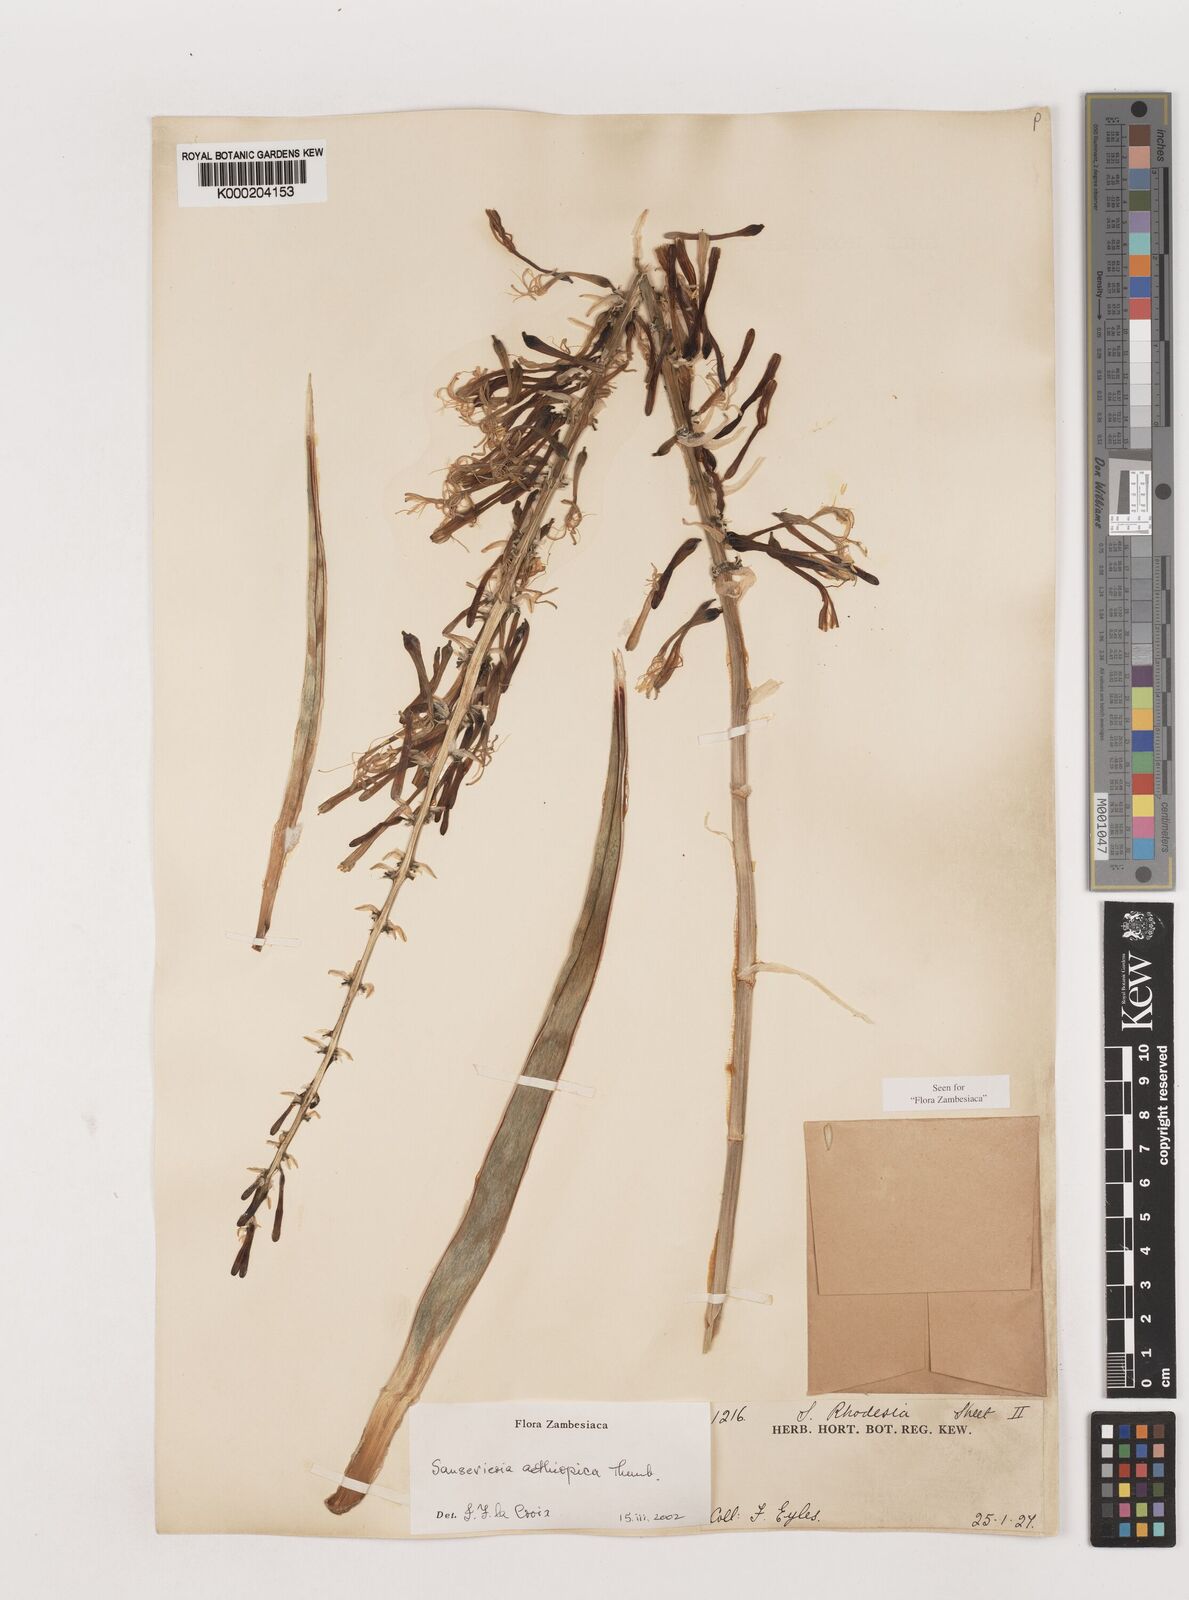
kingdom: Plantae
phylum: Tracheophyta
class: Liliopsida
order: Asparagales
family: Asparagaceae
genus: Dracaena
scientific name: Dracaena mannii
